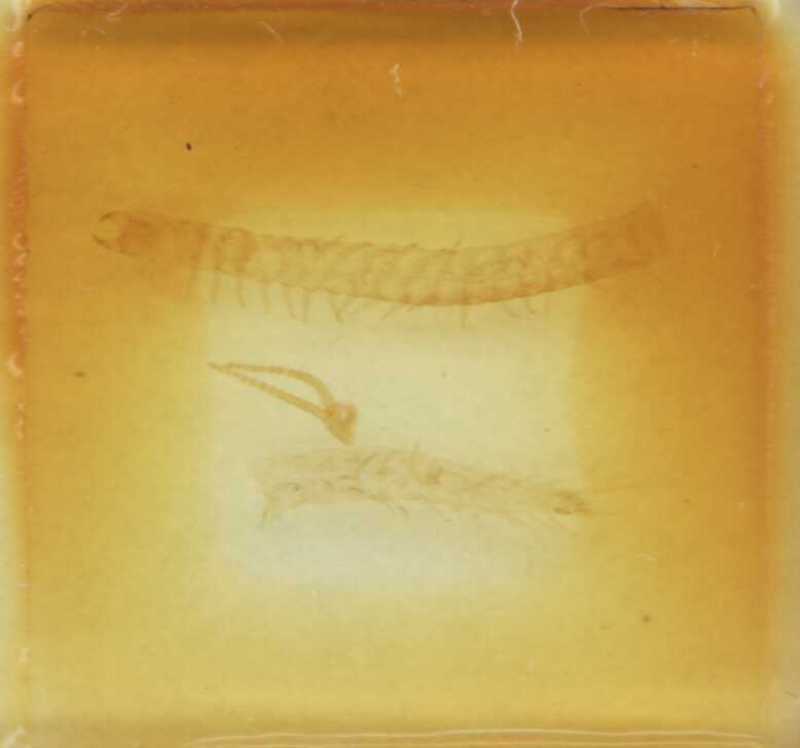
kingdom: Animalia
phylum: Arthropoda
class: Chilopoda
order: Geophilomorpha
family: Geophilidae
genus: Clinopodes
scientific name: Clinopodes flavidus
